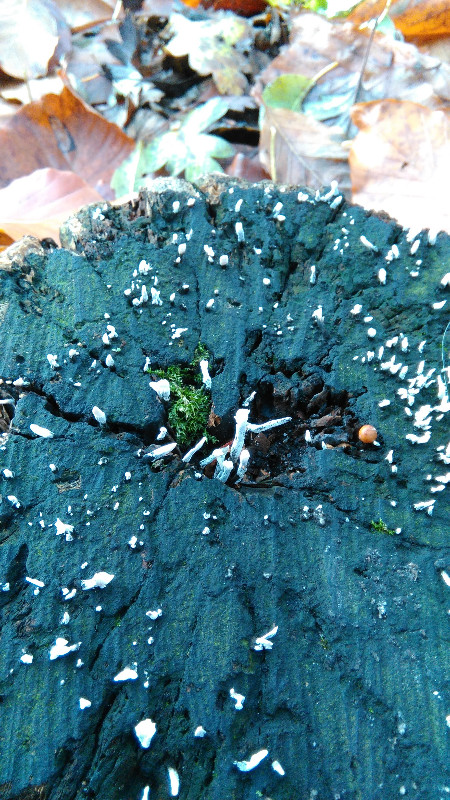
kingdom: Fungi
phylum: Ascomycota
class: Sordariomycetes
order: Xylariales
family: Xylariaceae
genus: Xylaria
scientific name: Xylaria hypoxylon
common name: grenet stødsvamp
